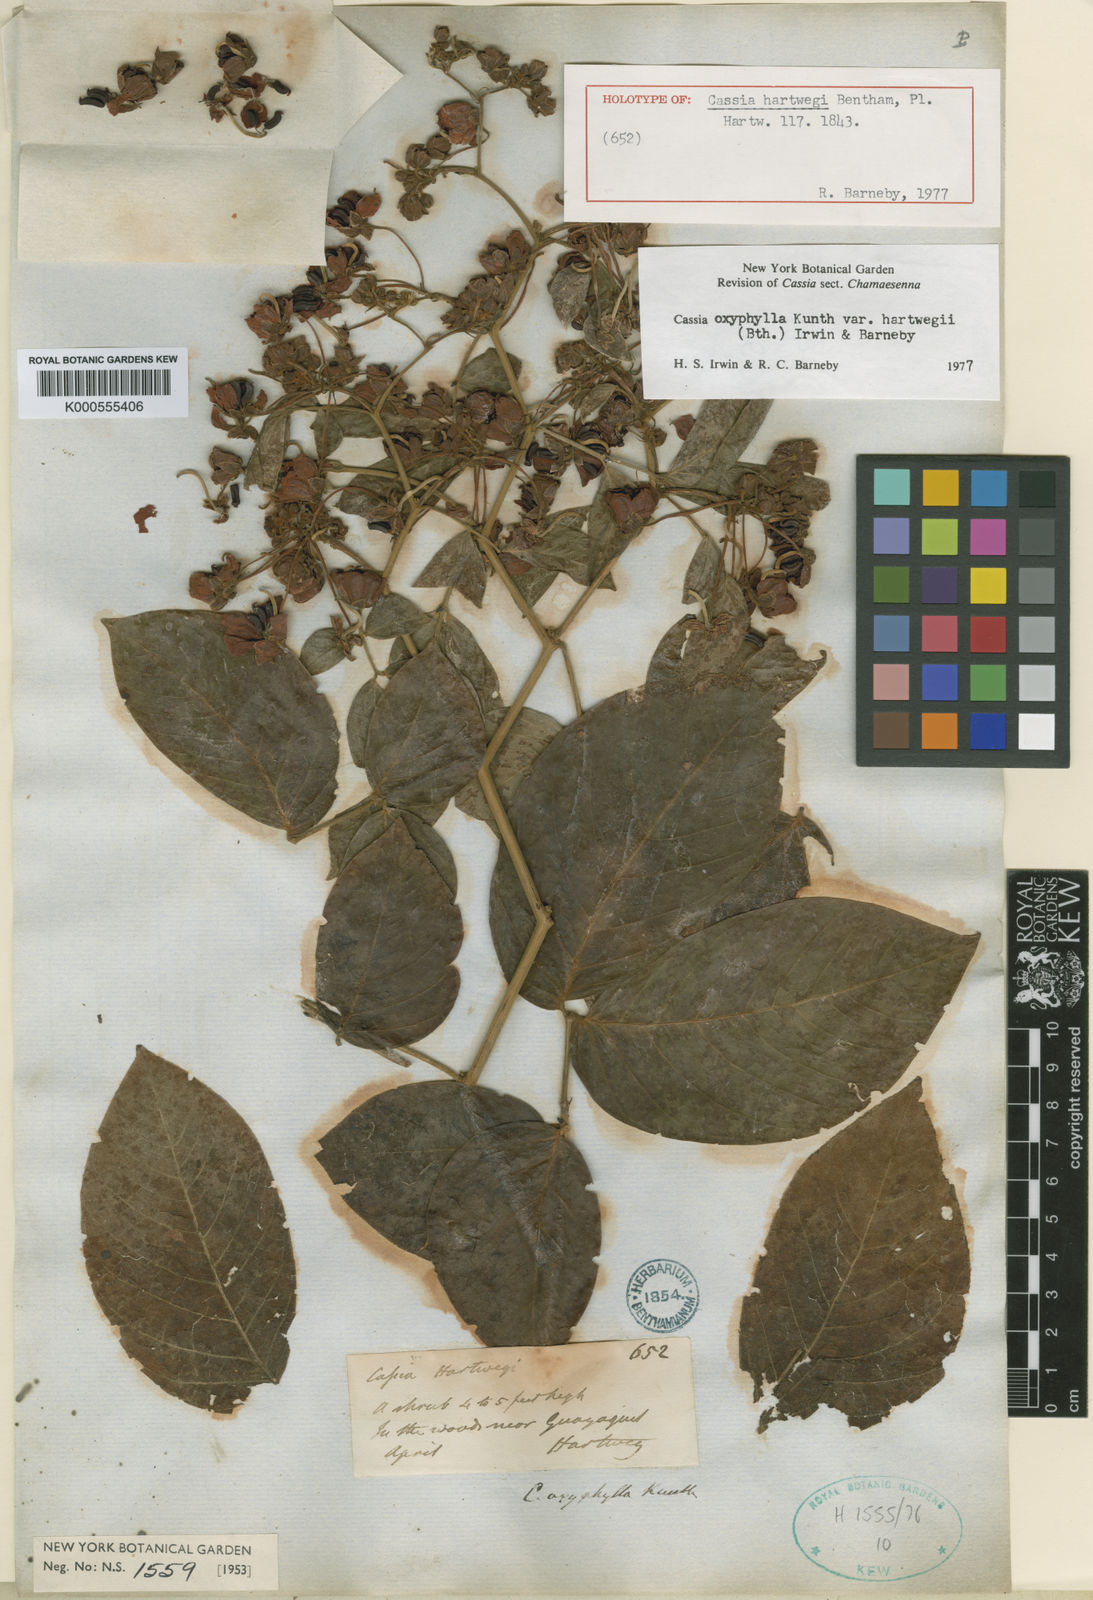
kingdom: Plantae
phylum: Tracheophyta
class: Magnoliopsida
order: Fabales
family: Fabaceae
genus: Senna
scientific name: Senna oxyphylla
